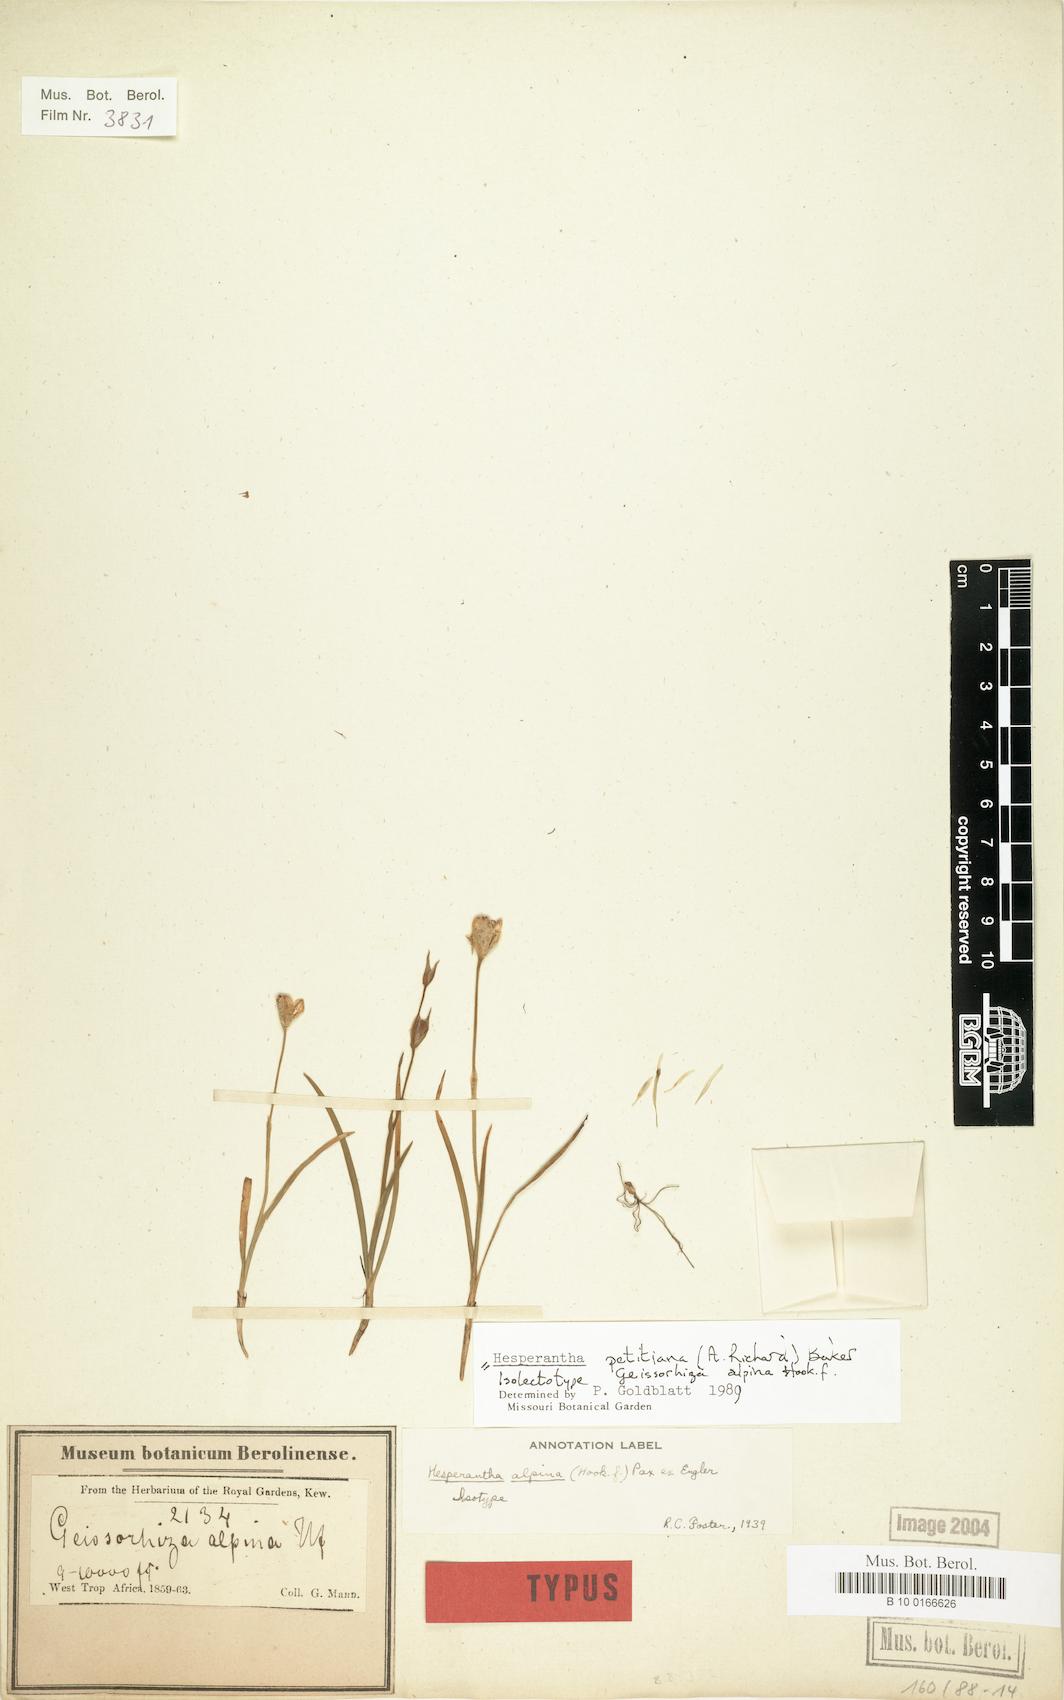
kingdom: Plantae
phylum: Tracheophyta
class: Liliopsida
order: Asparagales
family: Iridaceae
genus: Hesperantha
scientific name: Hesperantha petitiana
